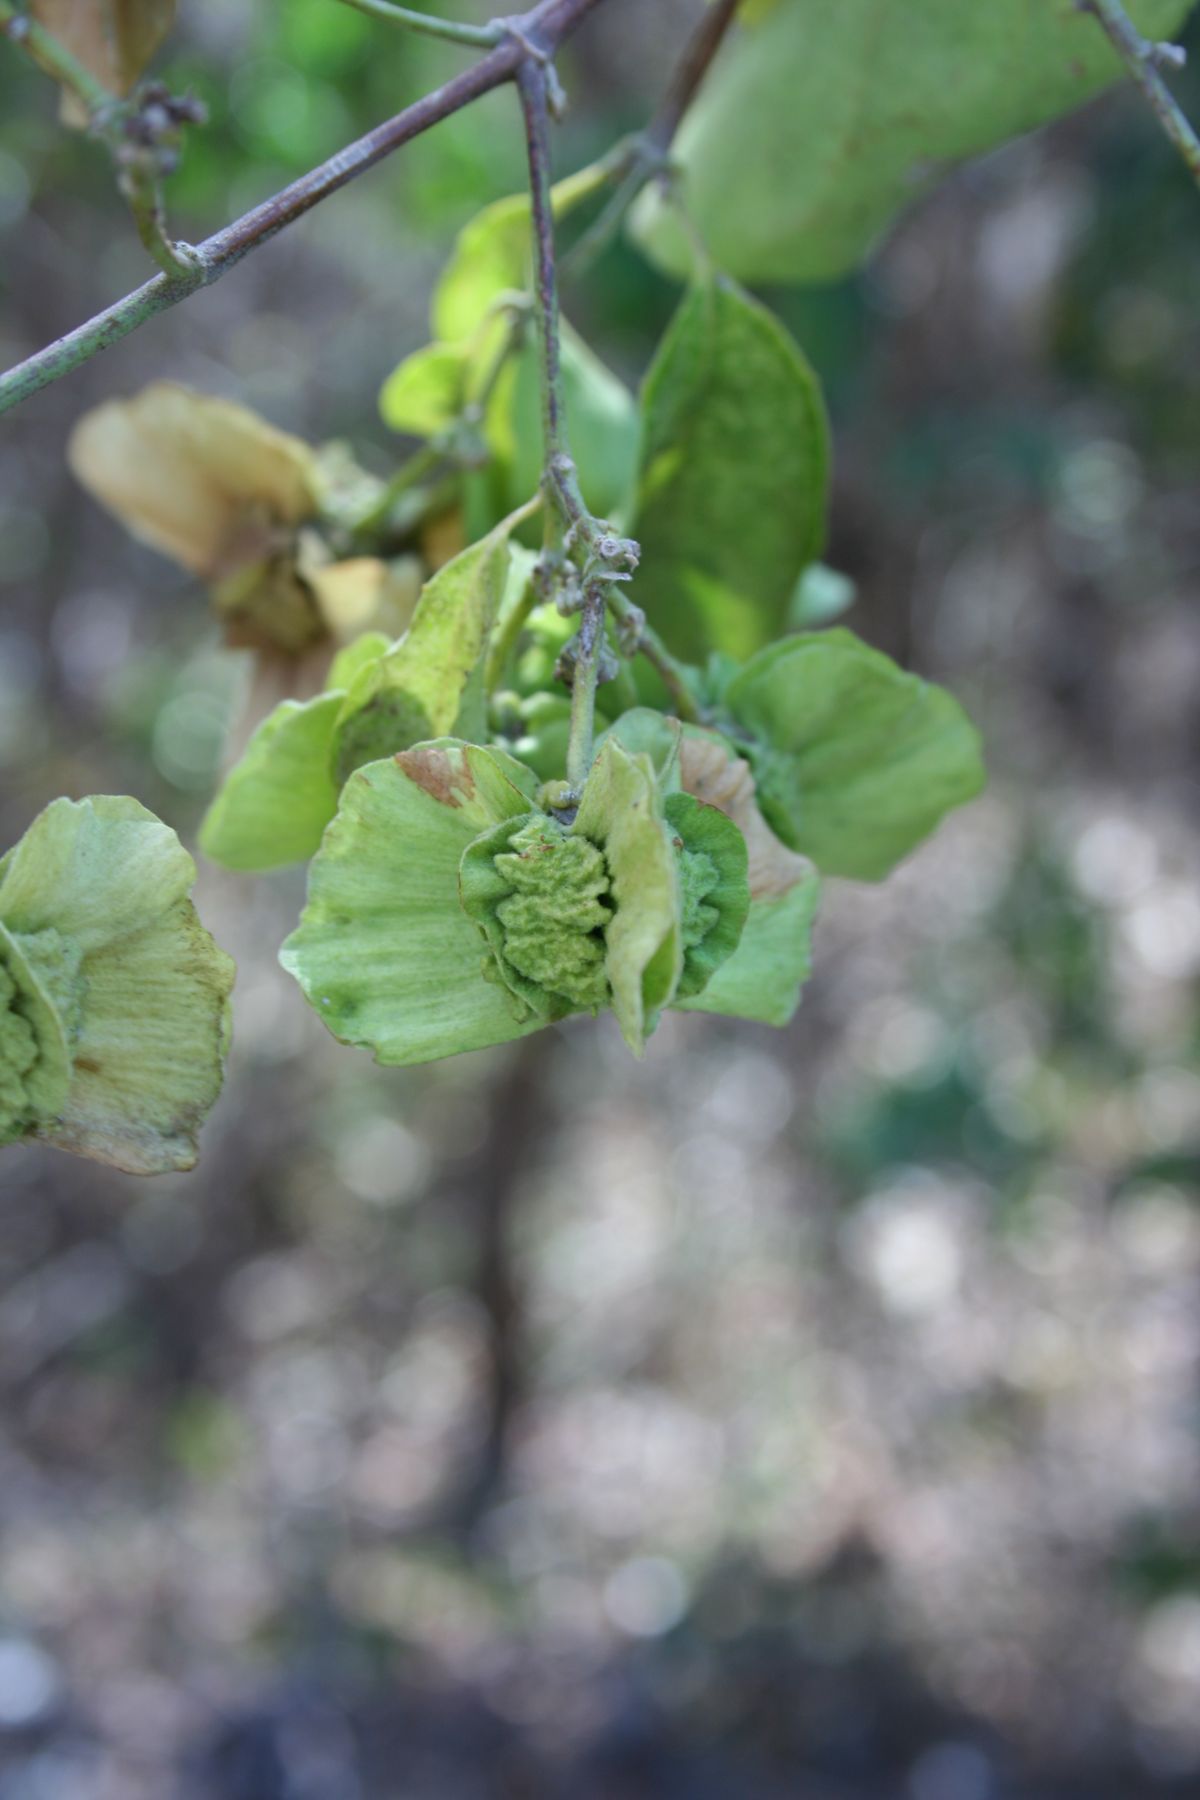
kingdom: Plantae
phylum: Tracheophyta
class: Magnoliopsida
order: Malpighiales
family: Malpighiaceae
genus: Callaeum
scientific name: Callaeum nicaraguense
